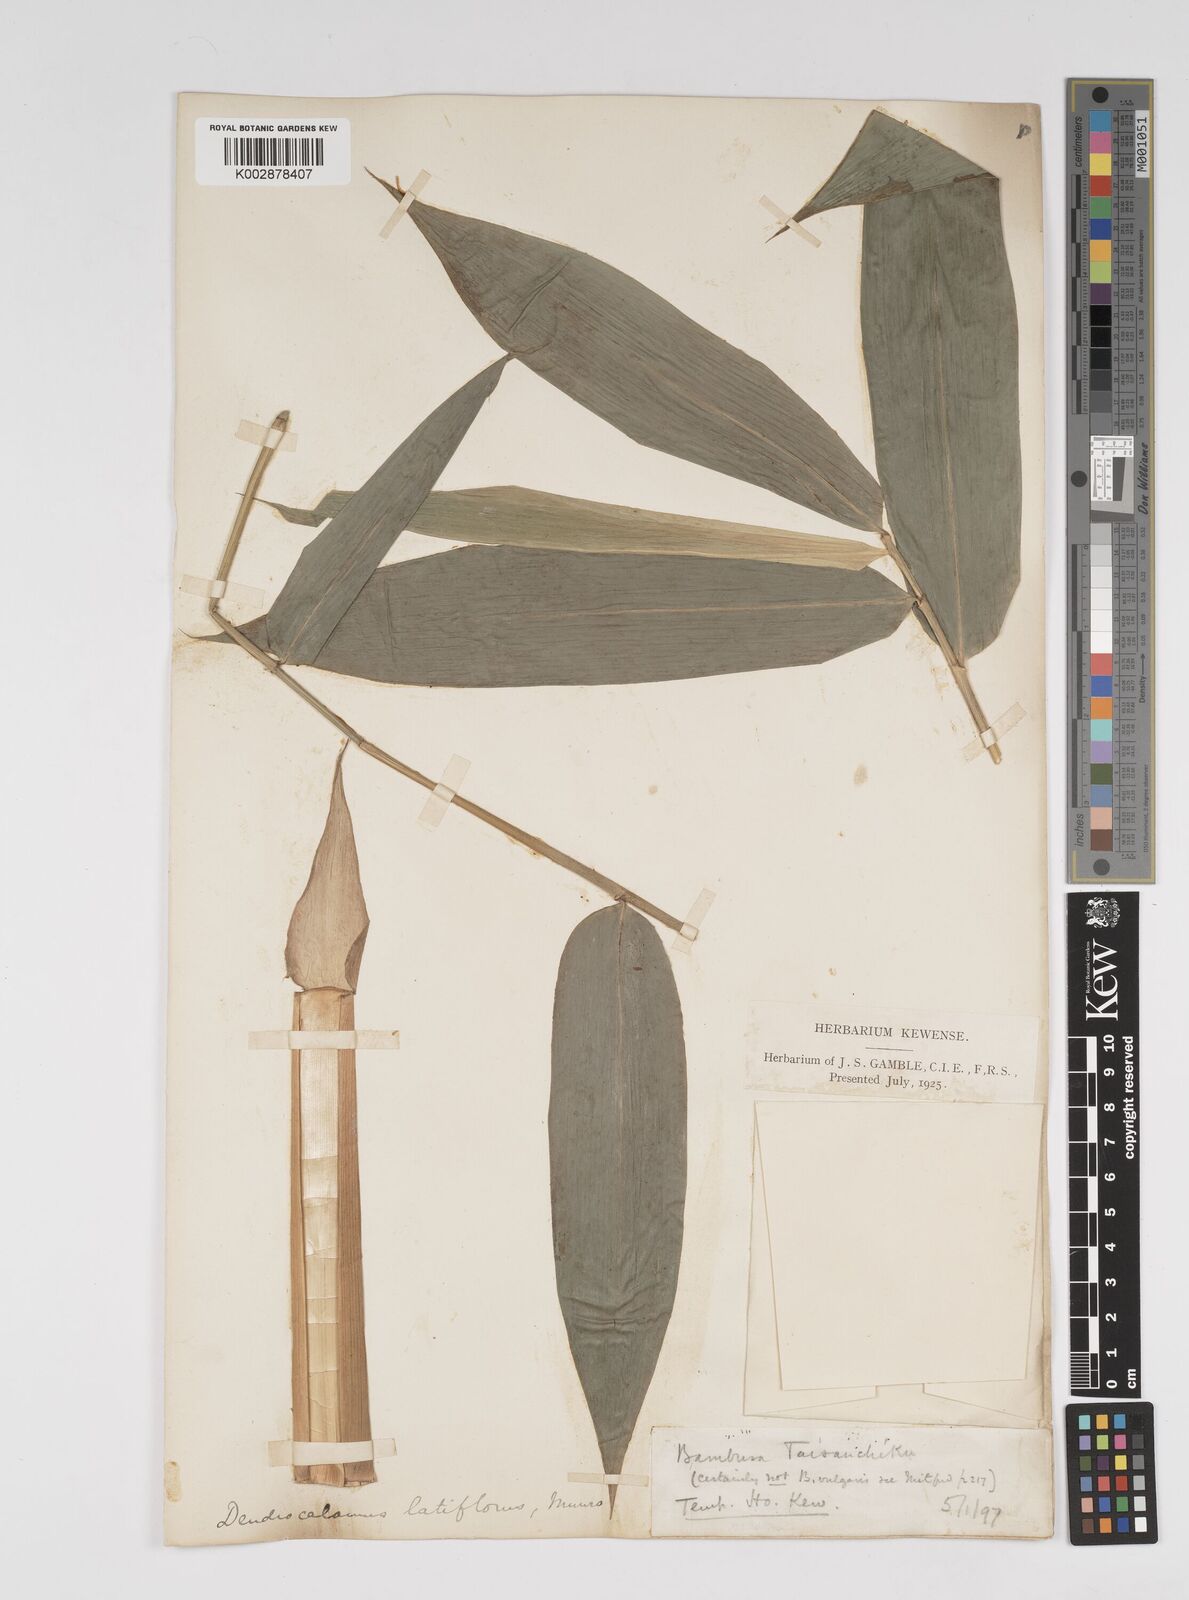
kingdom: Plantae
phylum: Tracheophyta
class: Liliopsida
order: Poales
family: Poaceae
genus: Dendrocalamus
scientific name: Dendrocalamus latiflorus
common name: Giant bamboo
